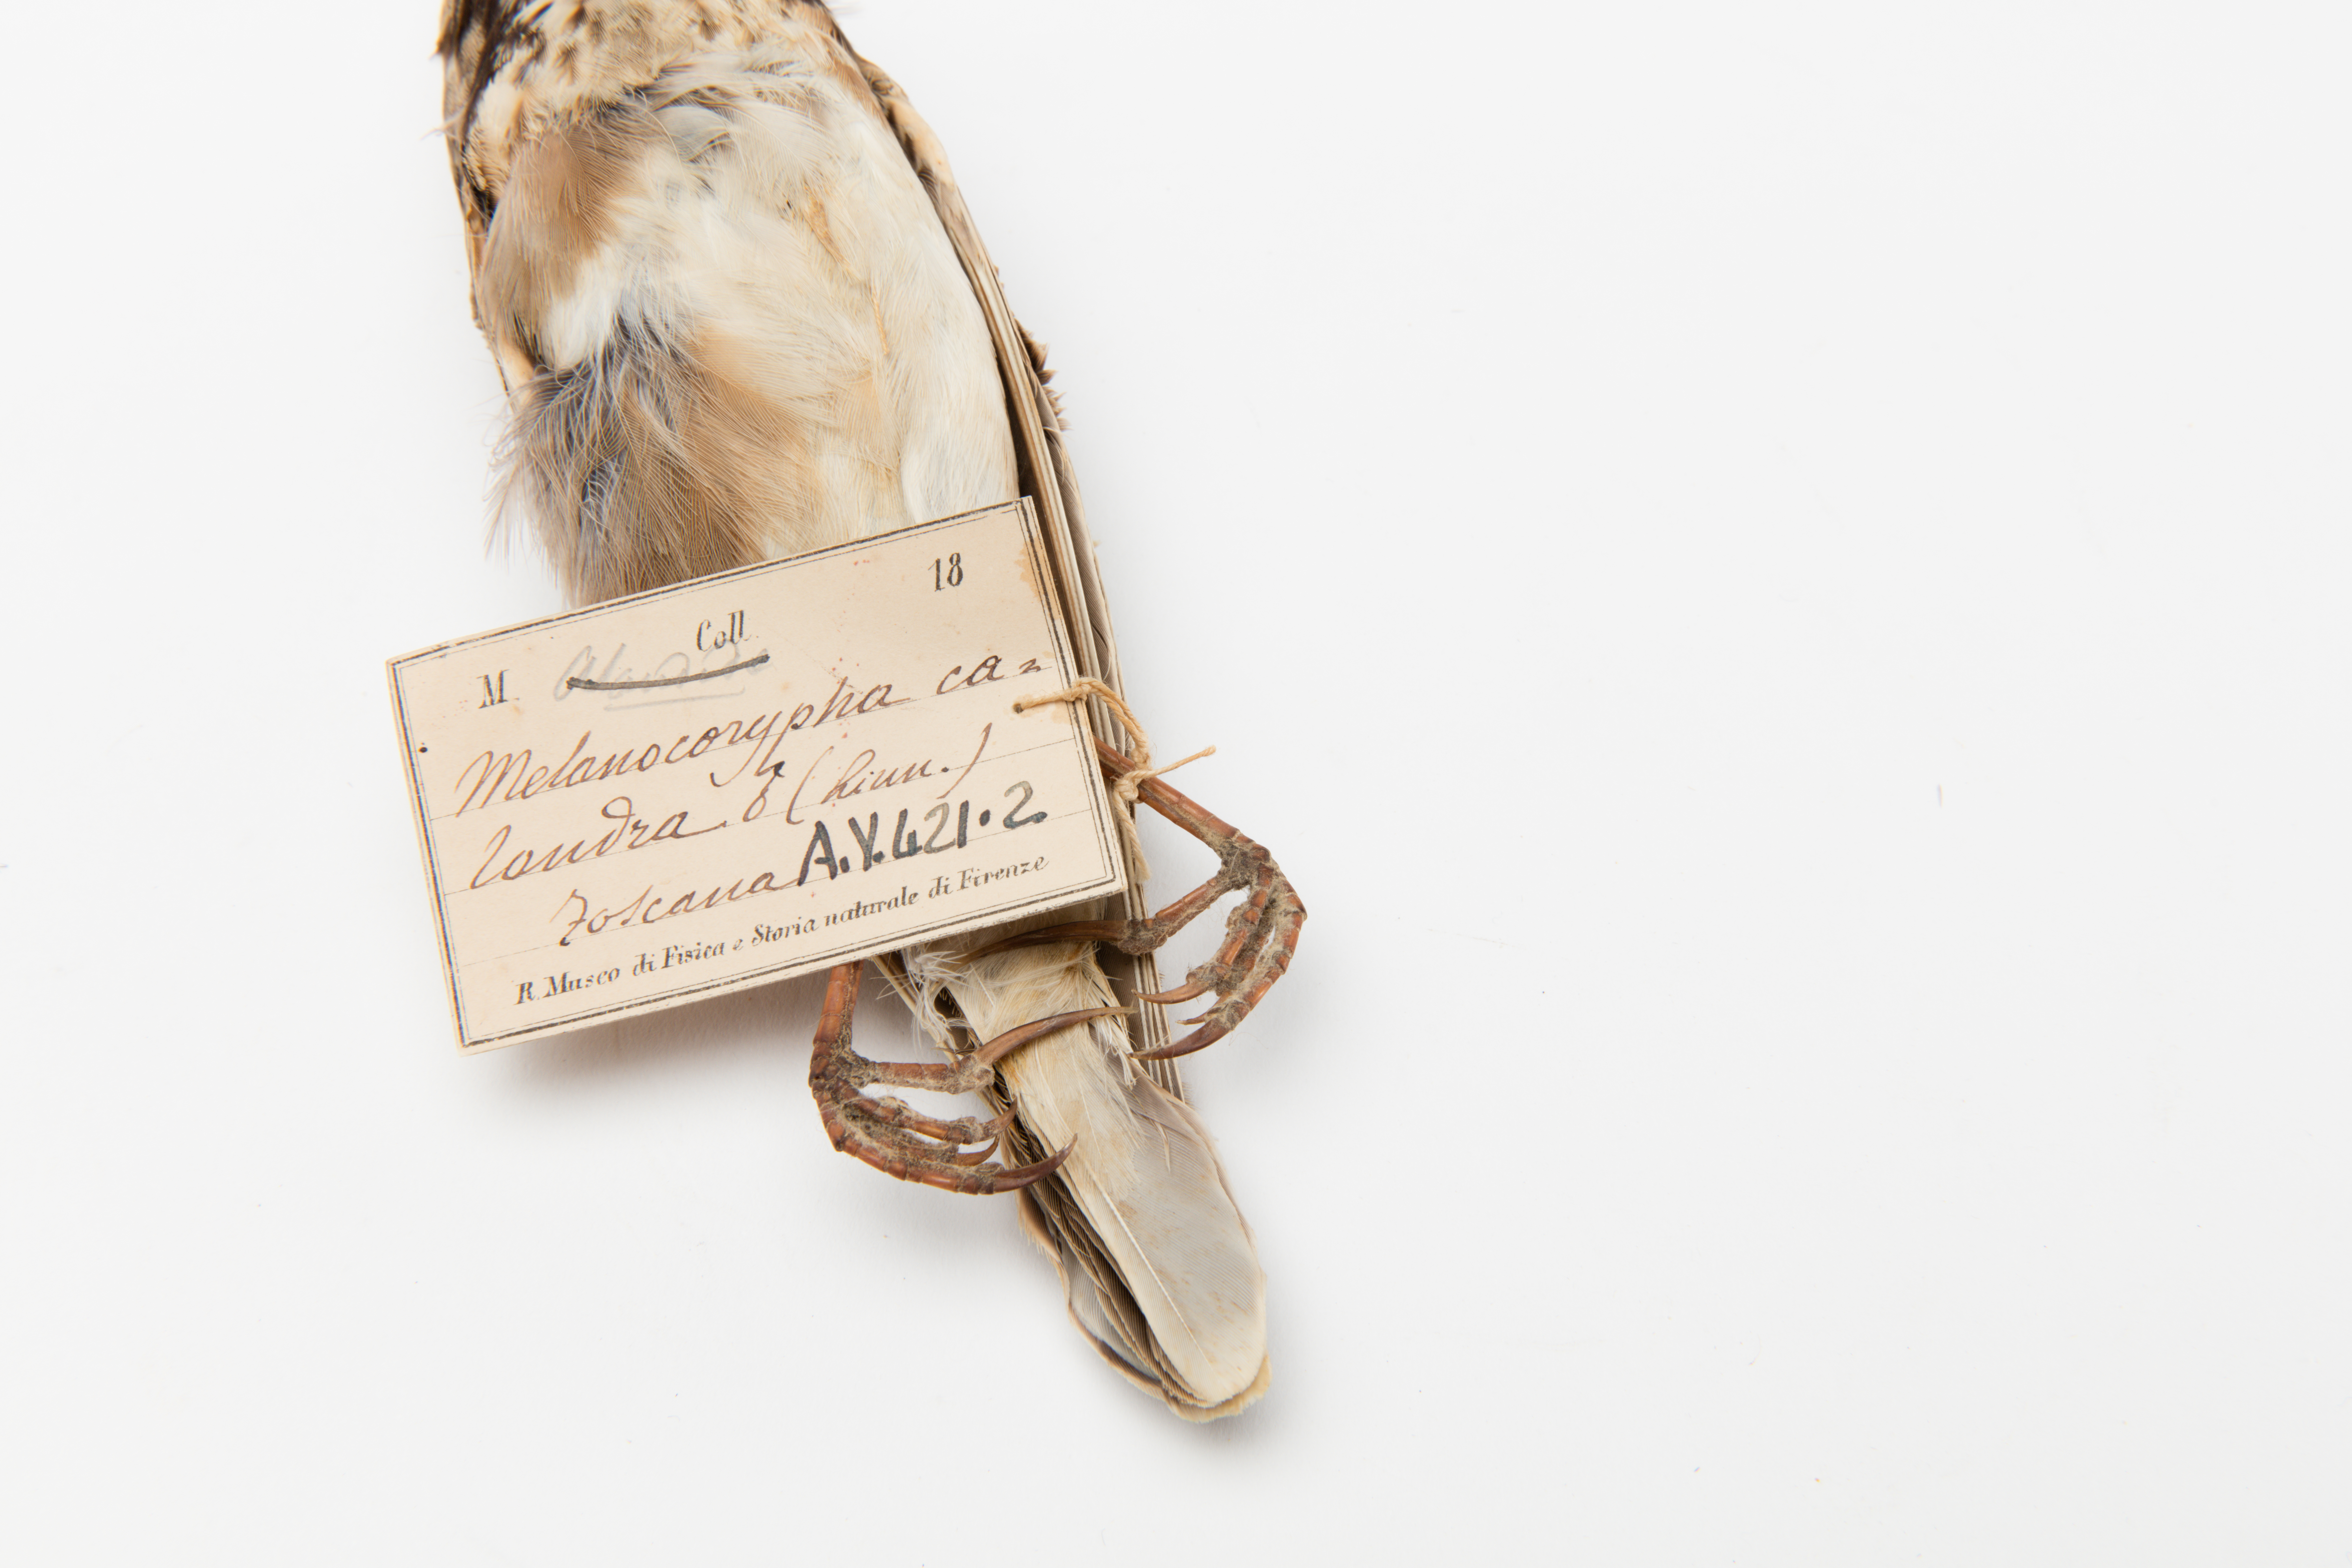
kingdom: Animalia
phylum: Chordata
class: Aves
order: Passeriformes
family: Alaudidae
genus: Melanocorypha
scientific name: Melanocorypha calandra
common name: Calandra lark
